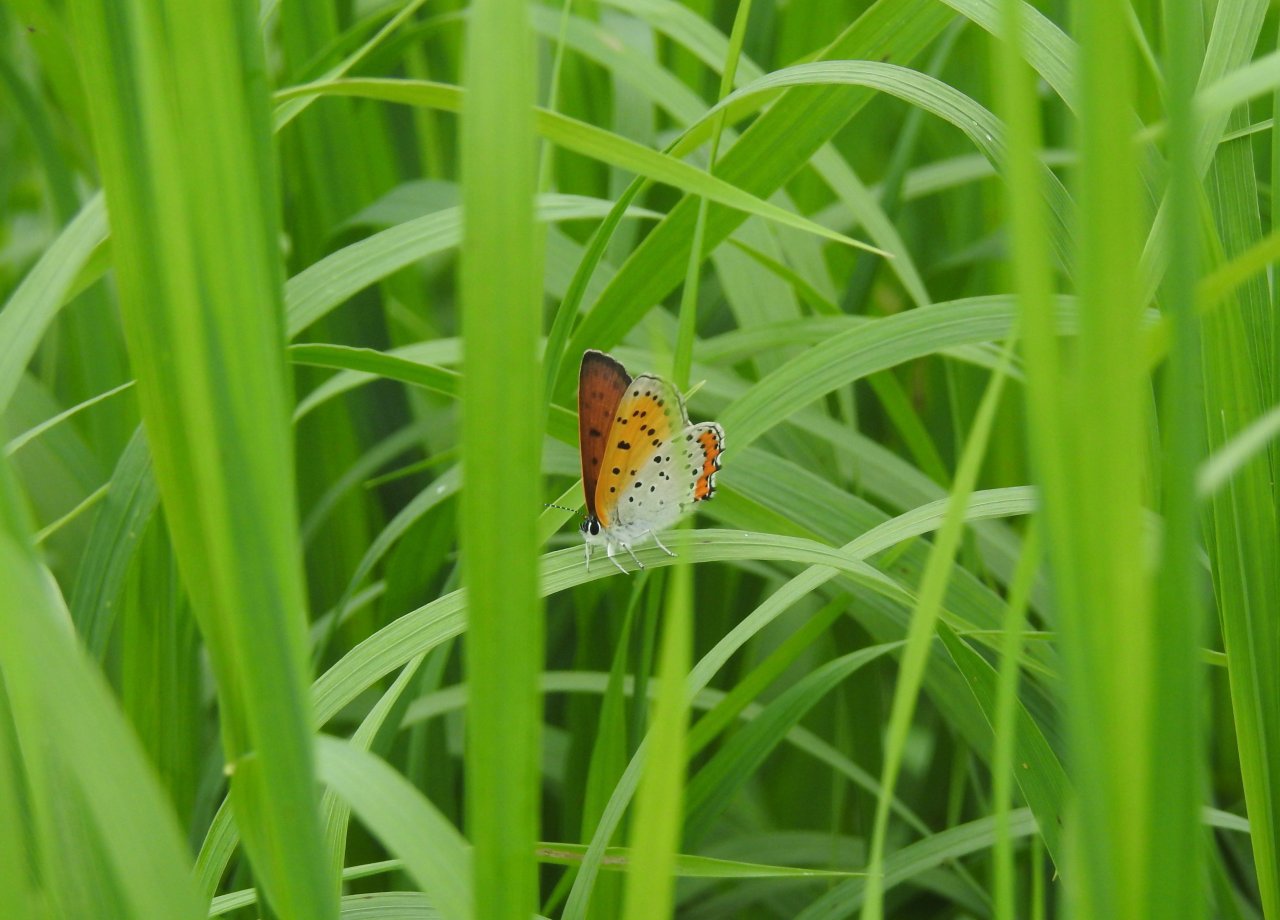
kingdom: Animalia
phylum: Arthropoda
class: Insecta
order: Lepidoptera
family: Sesiidae
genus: Sesia
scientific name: Sesia Lycaena hyllus
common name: Bronze Copper
